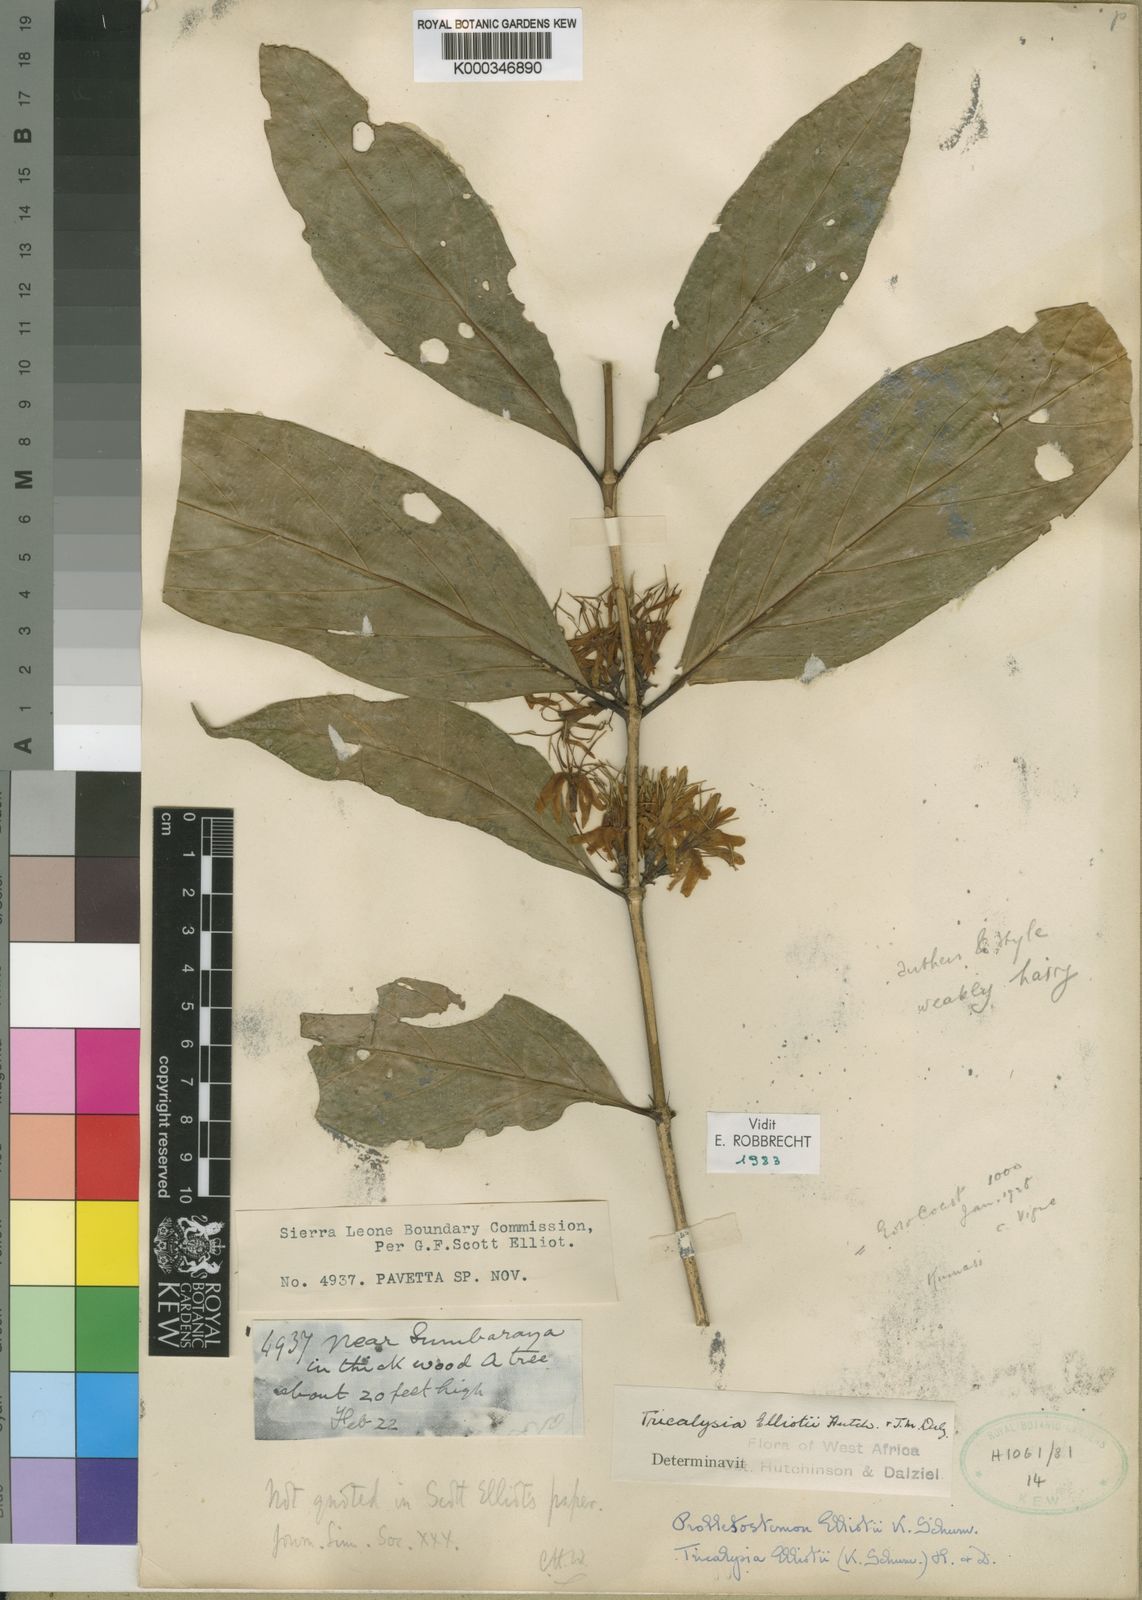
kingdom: Plantae
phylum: Tracheophyta
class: Magnoliopsida
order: Gentianales
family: Rubiaceae
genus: Tricalysia
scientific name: Tricalysia elliottii
